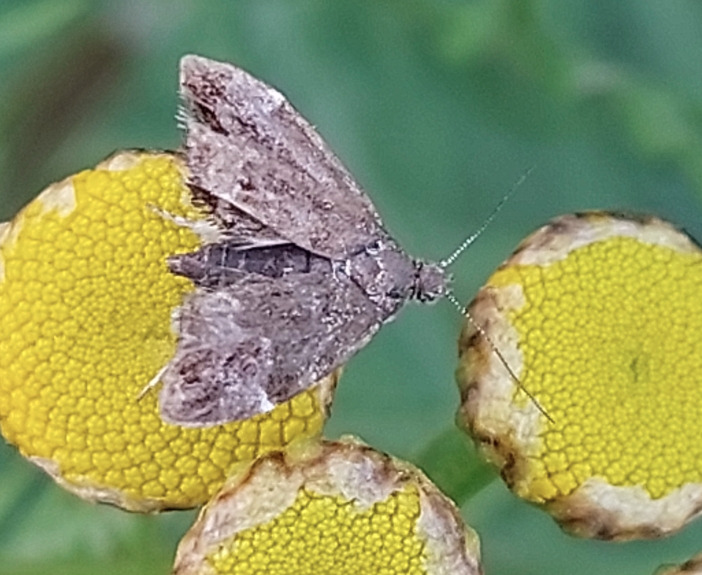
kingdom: Animalia
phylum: Arthropoda
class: Insecta
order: Lepidoptera
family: Choreutidae
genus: Anthophila
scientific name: Anthophila fabriciana
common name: Bredvinget nældevikler
